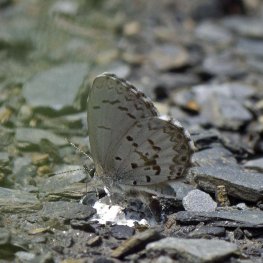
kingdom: Animalia
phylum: Arthropoda
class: Insecta
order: Lepidoptera
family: Lycaenidae
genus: Celastrina
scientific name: Celastrina lucia
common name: Northern Spring Azure
